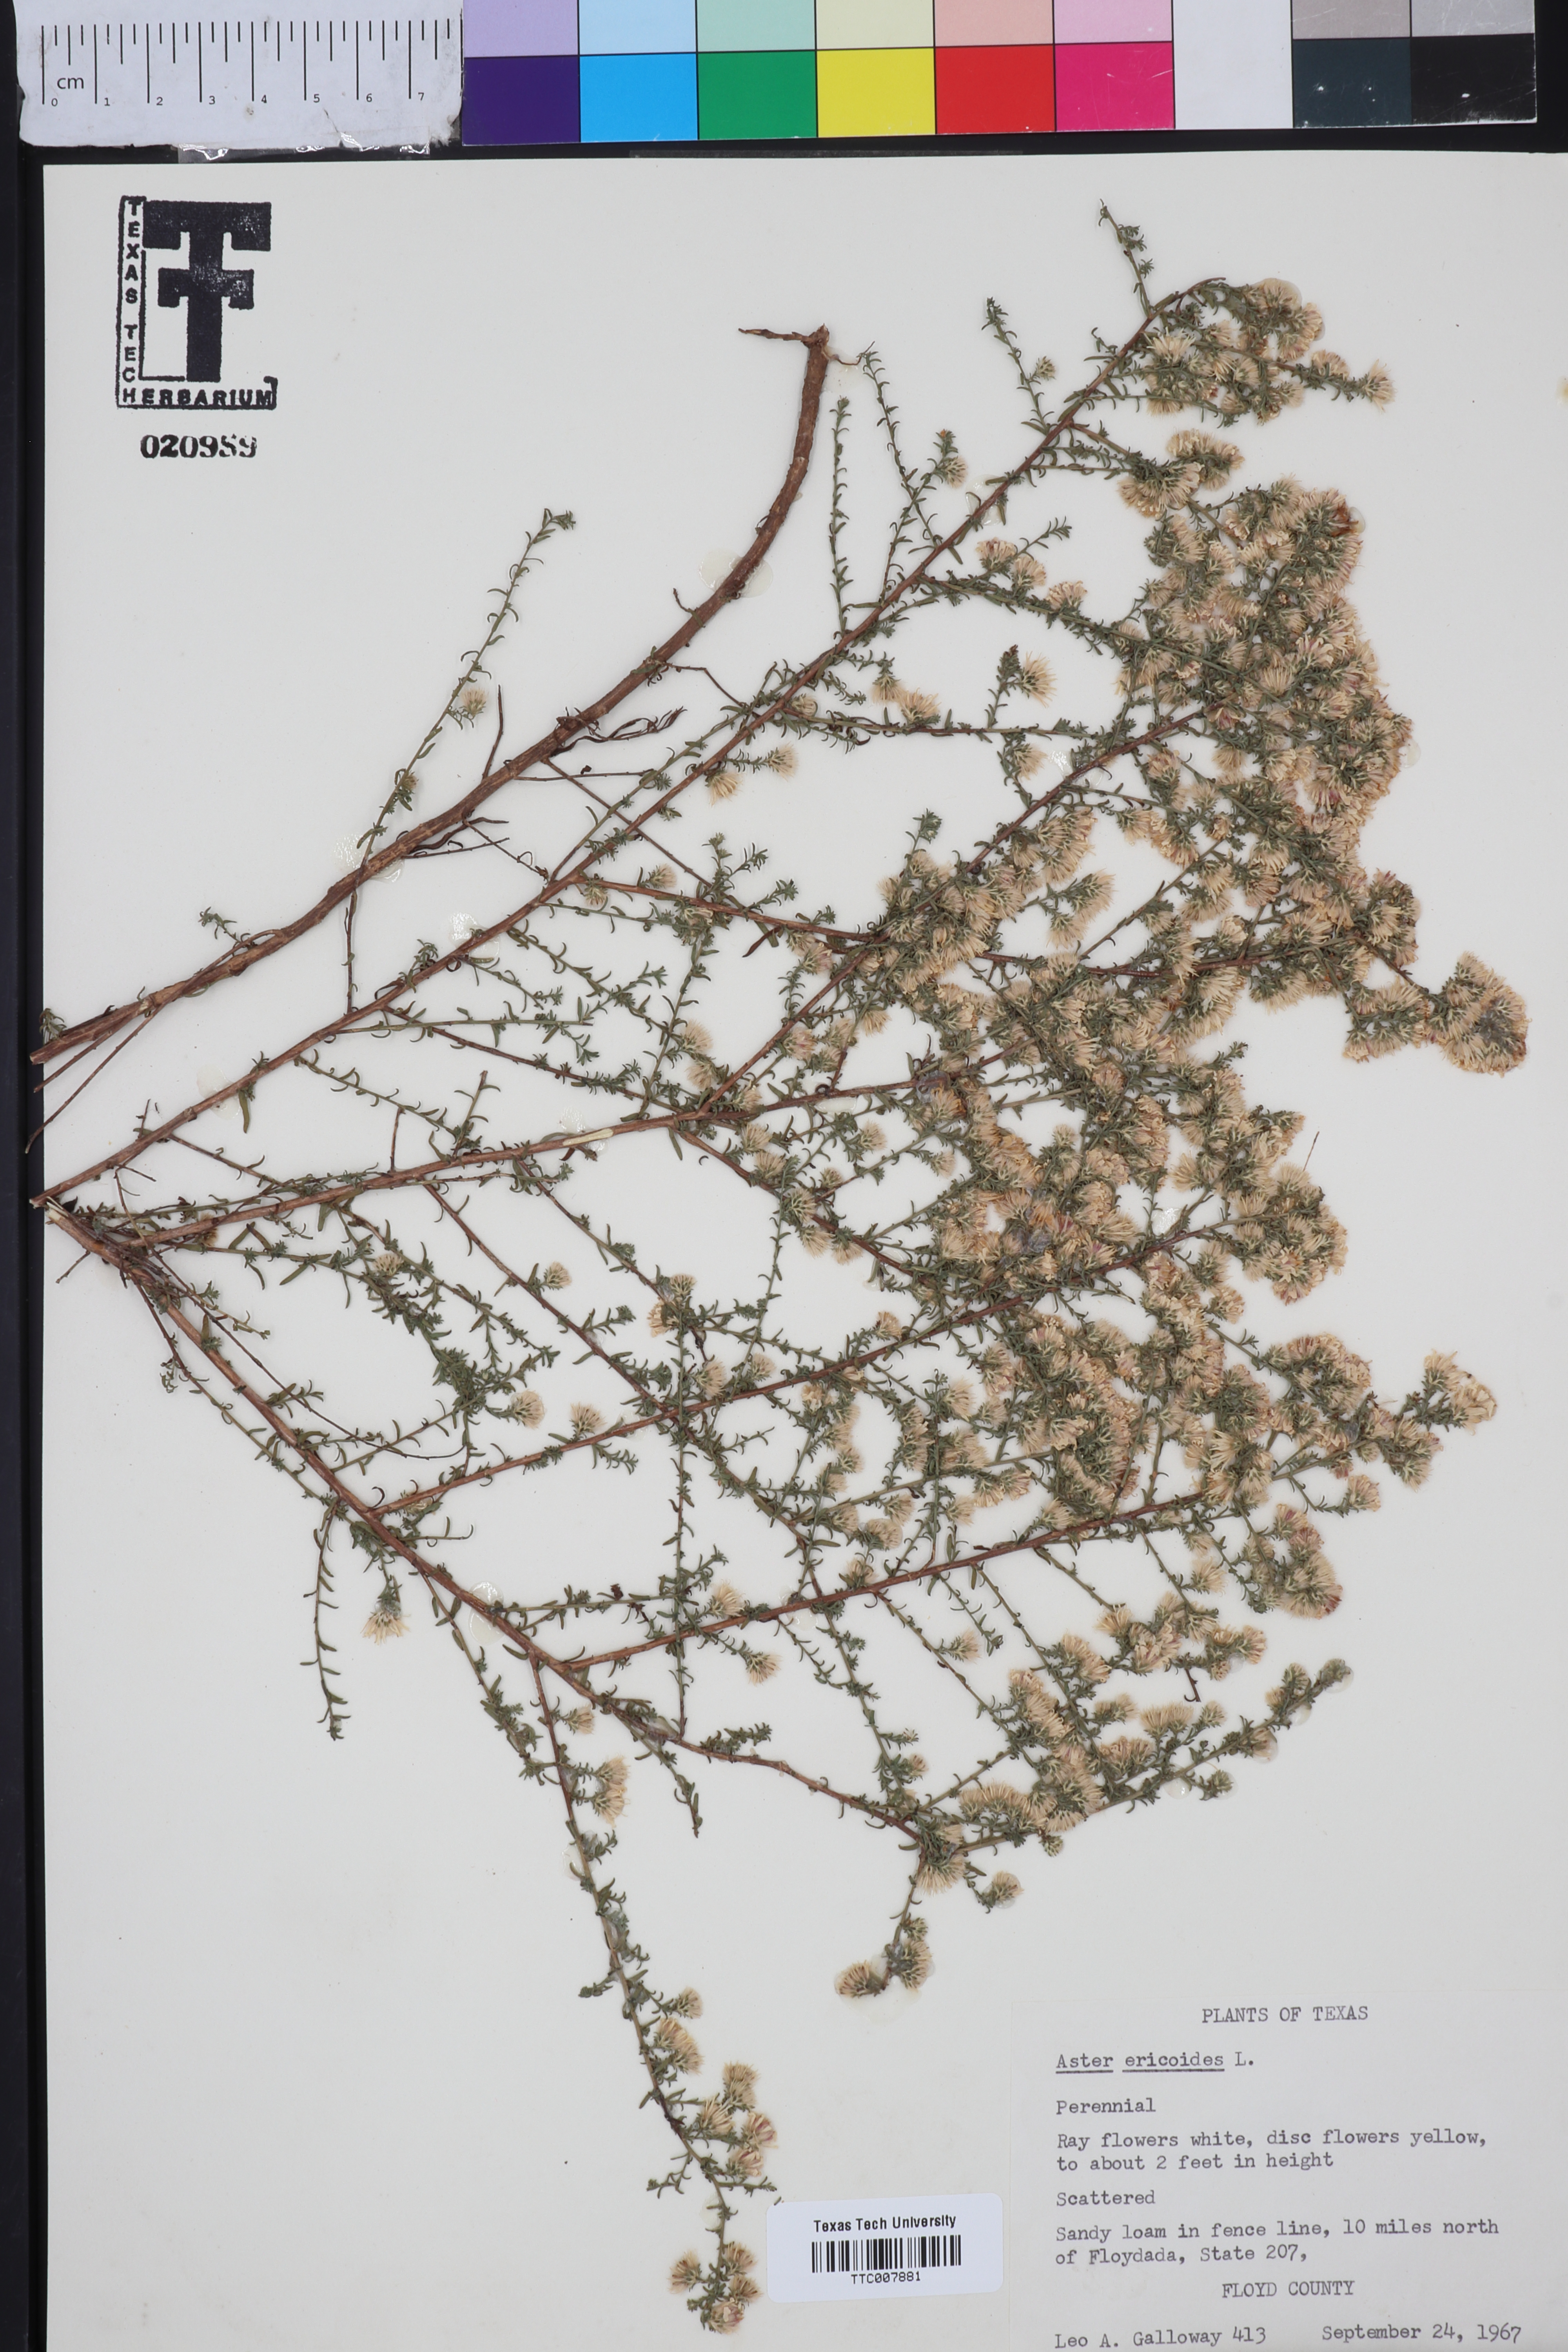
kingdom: Plantae
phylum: Tracheophyta
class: Magnoliopsida
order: Asterales
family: Asteraceae
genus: Symphyotrichum
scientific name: Symphyotrichum ericoides
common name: Heath aster
